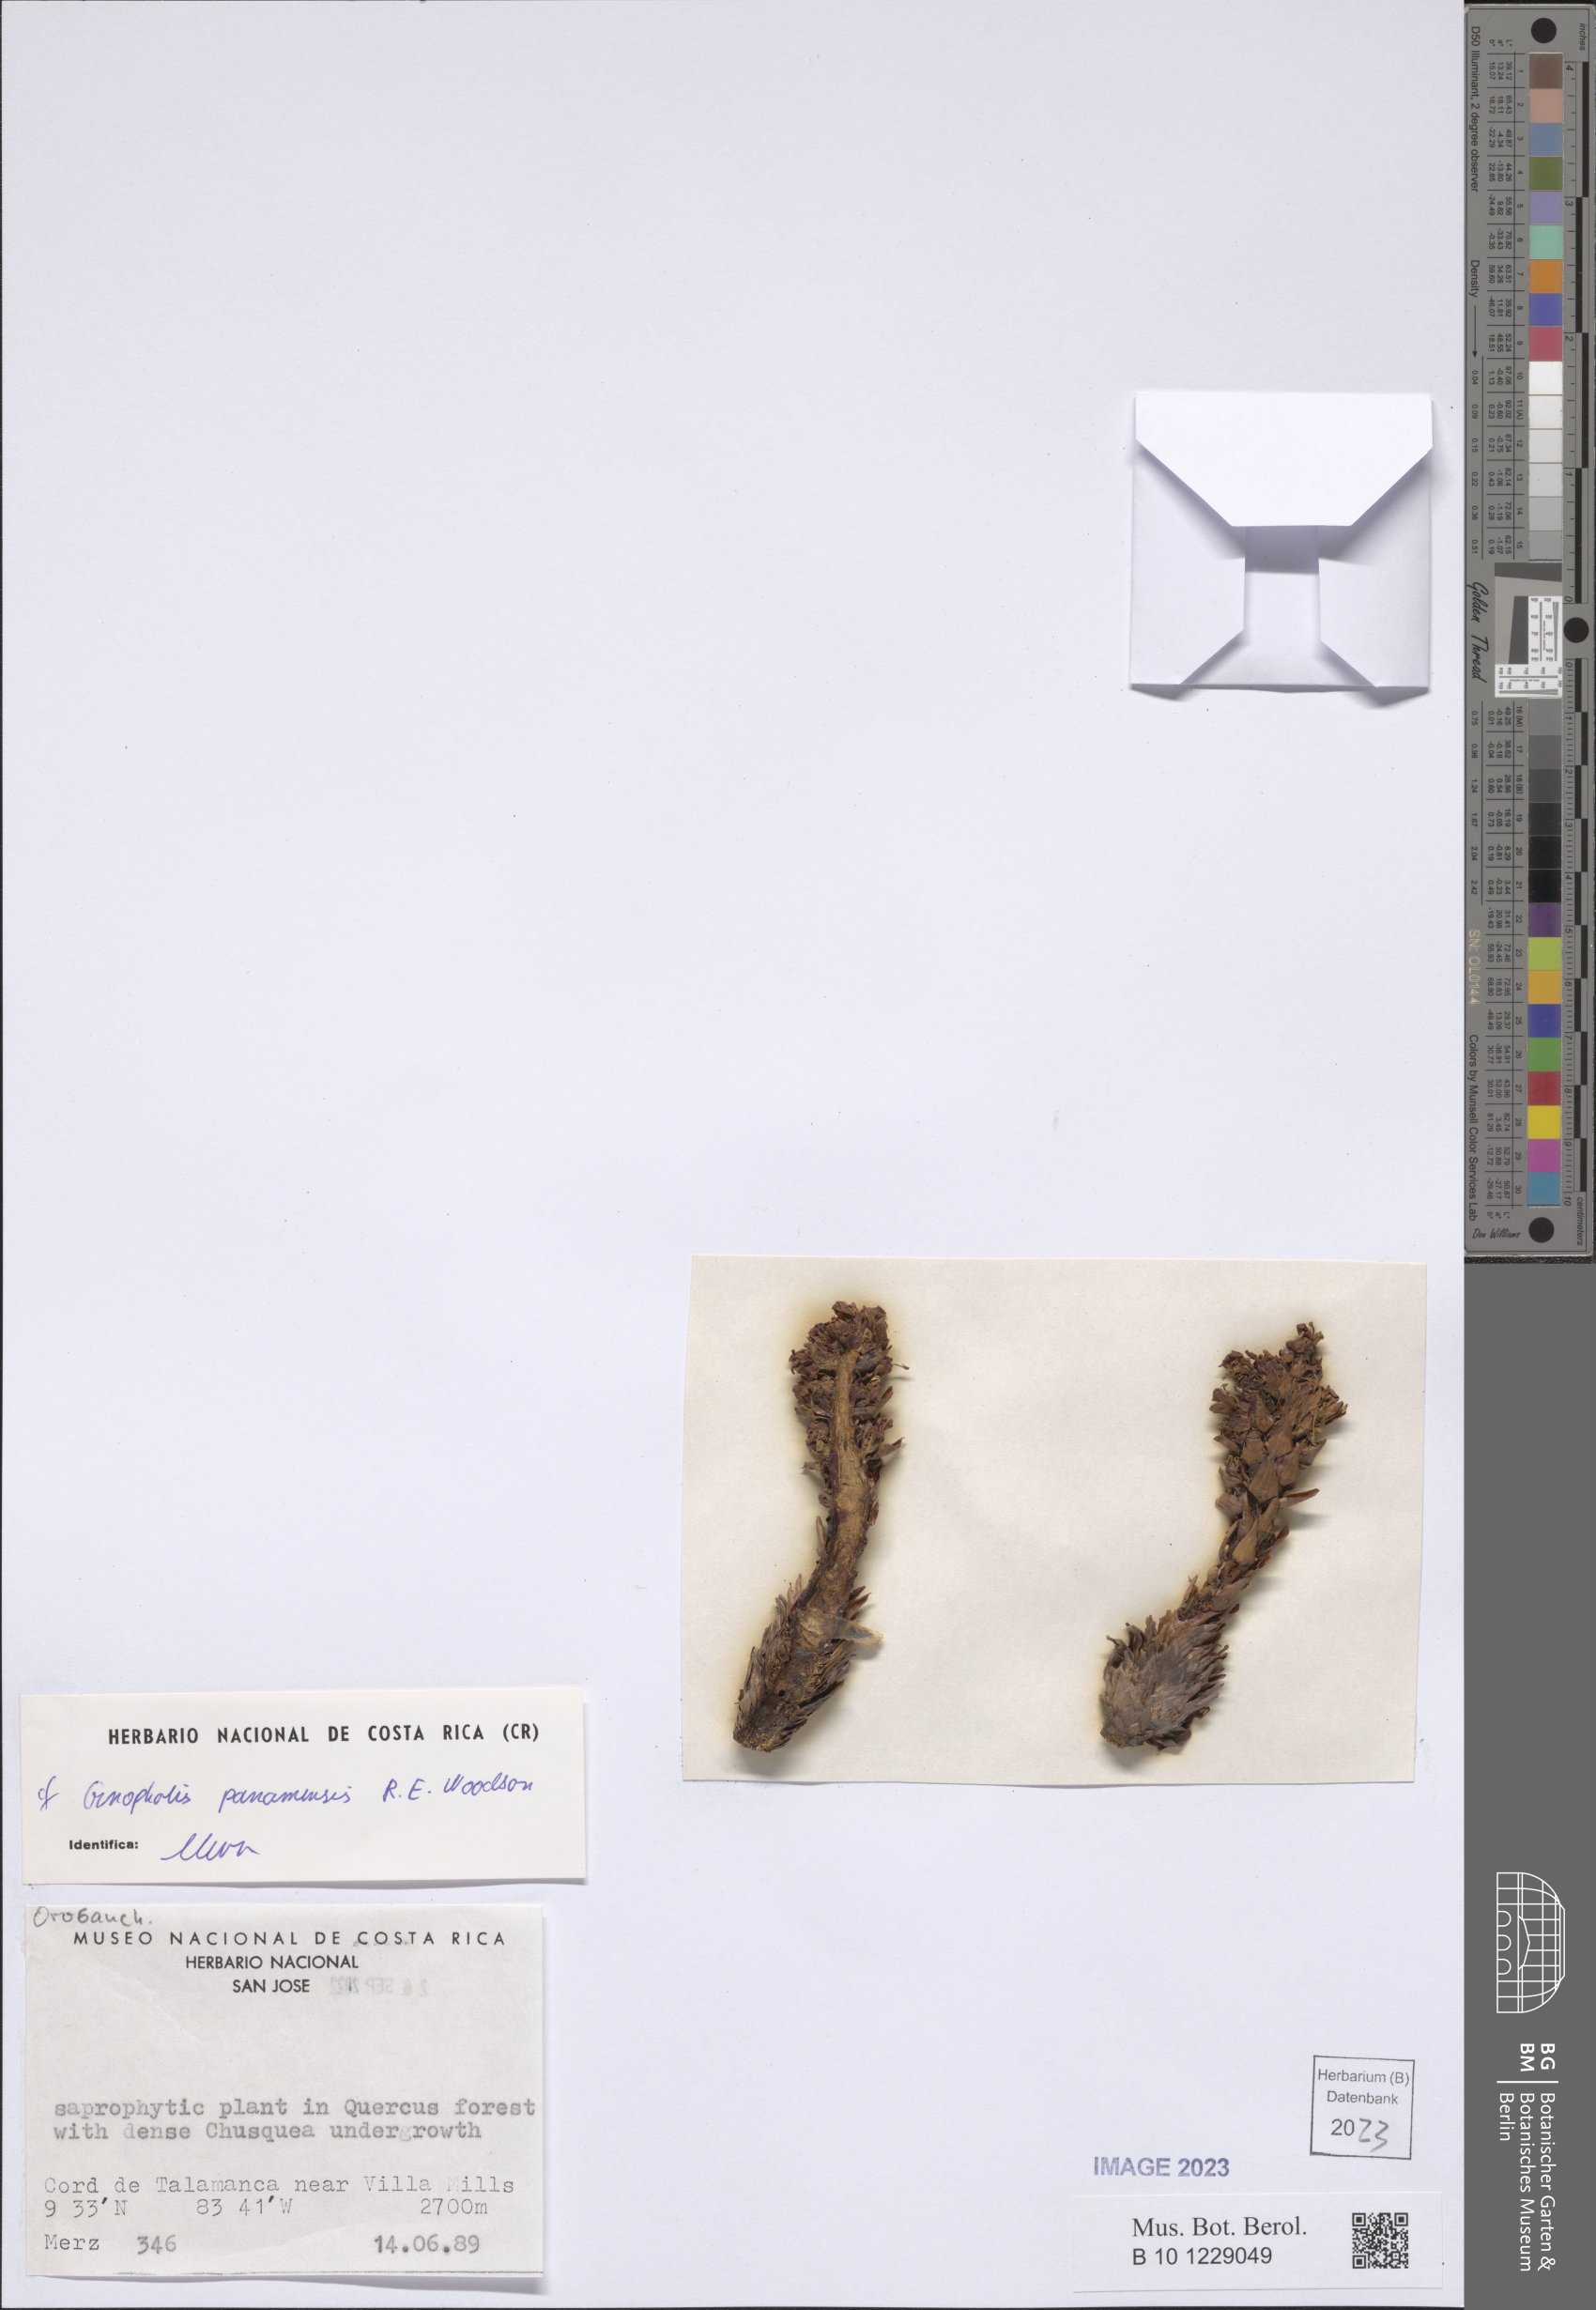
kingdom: Plantae
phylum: Tracheophyta
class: Magnoliopsida
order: Lamiales
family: Orobanchaceae
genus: Conopholis
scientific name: Conopholis panamensis
